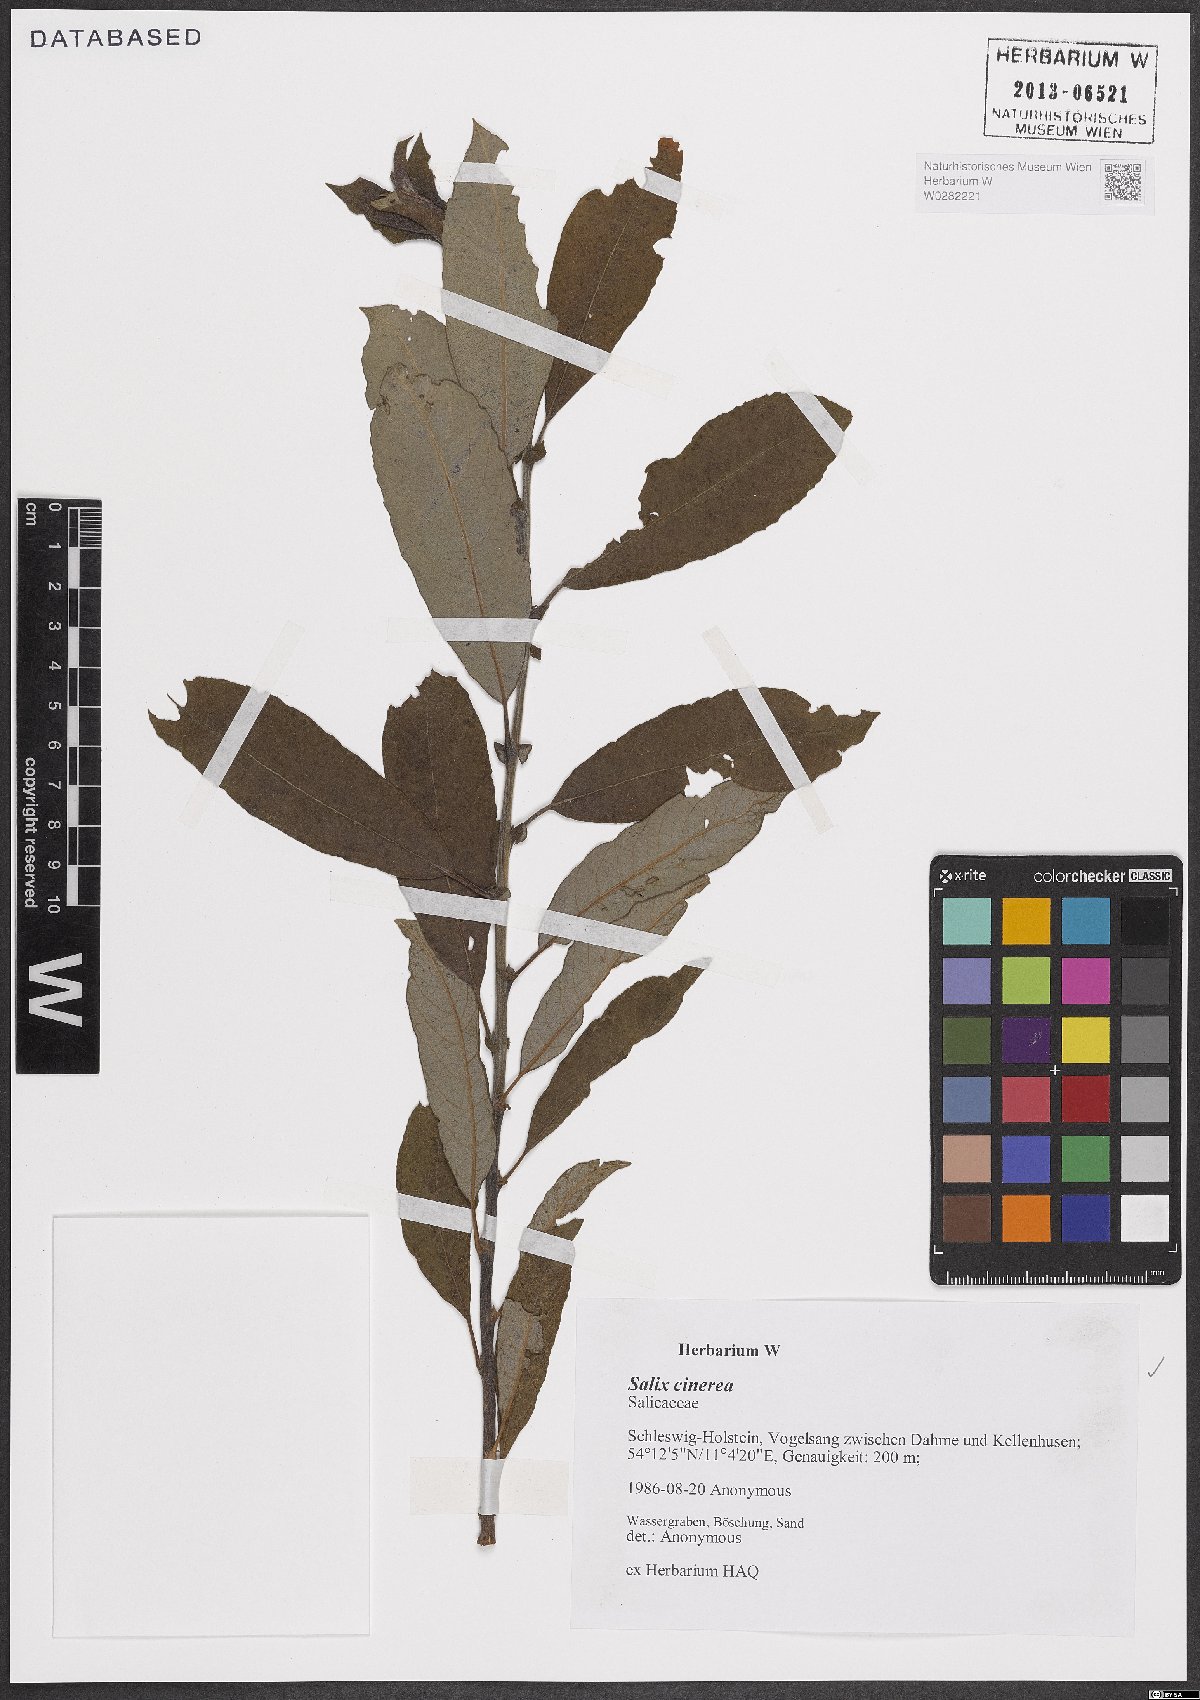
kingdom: Plantae
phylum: Tracheophyta
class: Magnoliopsida
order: Malpighiales
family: Salicaceae
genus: Salix
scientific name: Salix cinerea
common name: Common sallow
